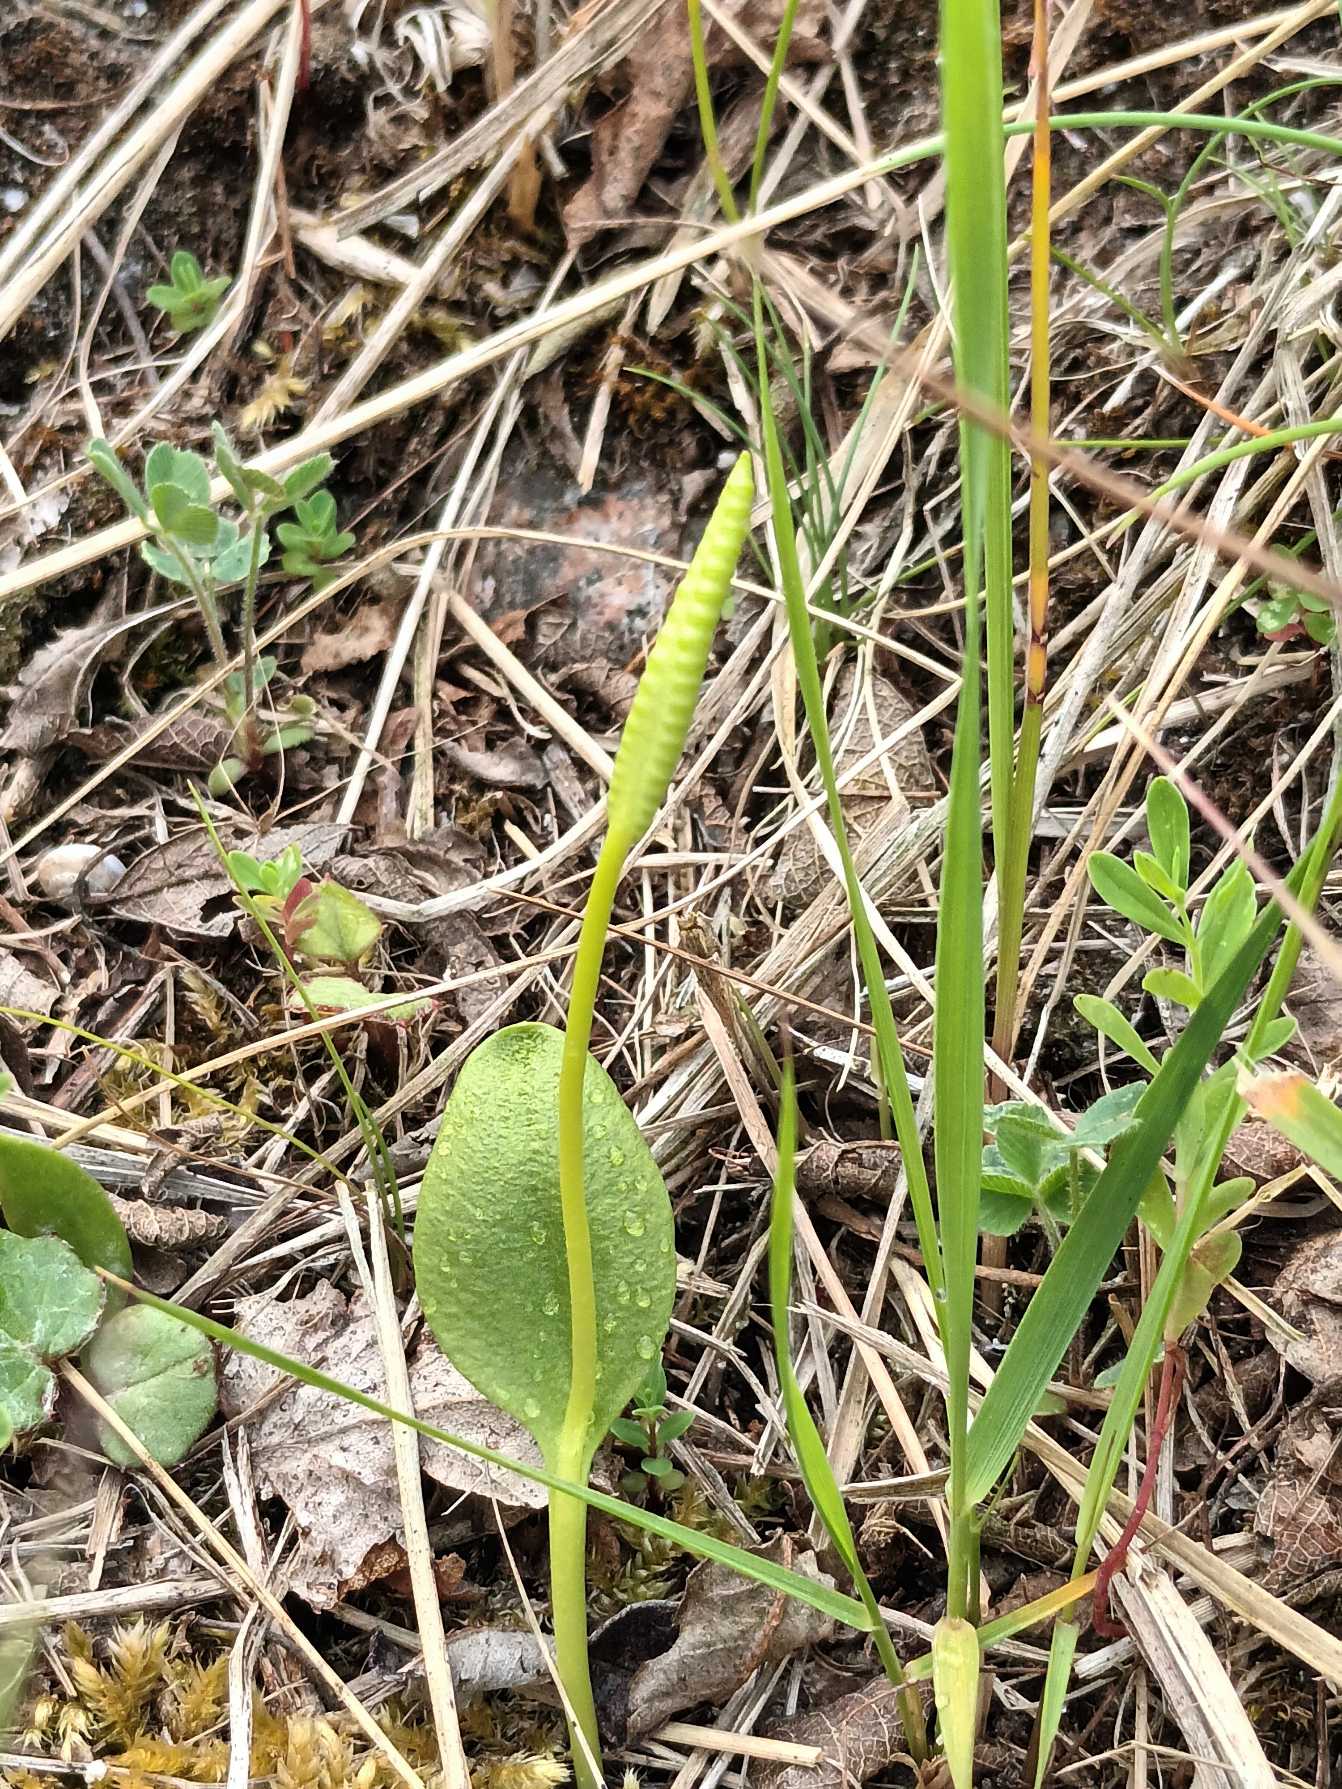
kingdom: Plantae
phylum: Tracheophyta
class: Polypodiopsida
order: Ophioglossales
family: Ophioglossaceae
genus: Ophioglossum
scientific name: Ophioglossum vulgatum
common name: Slangetunge
